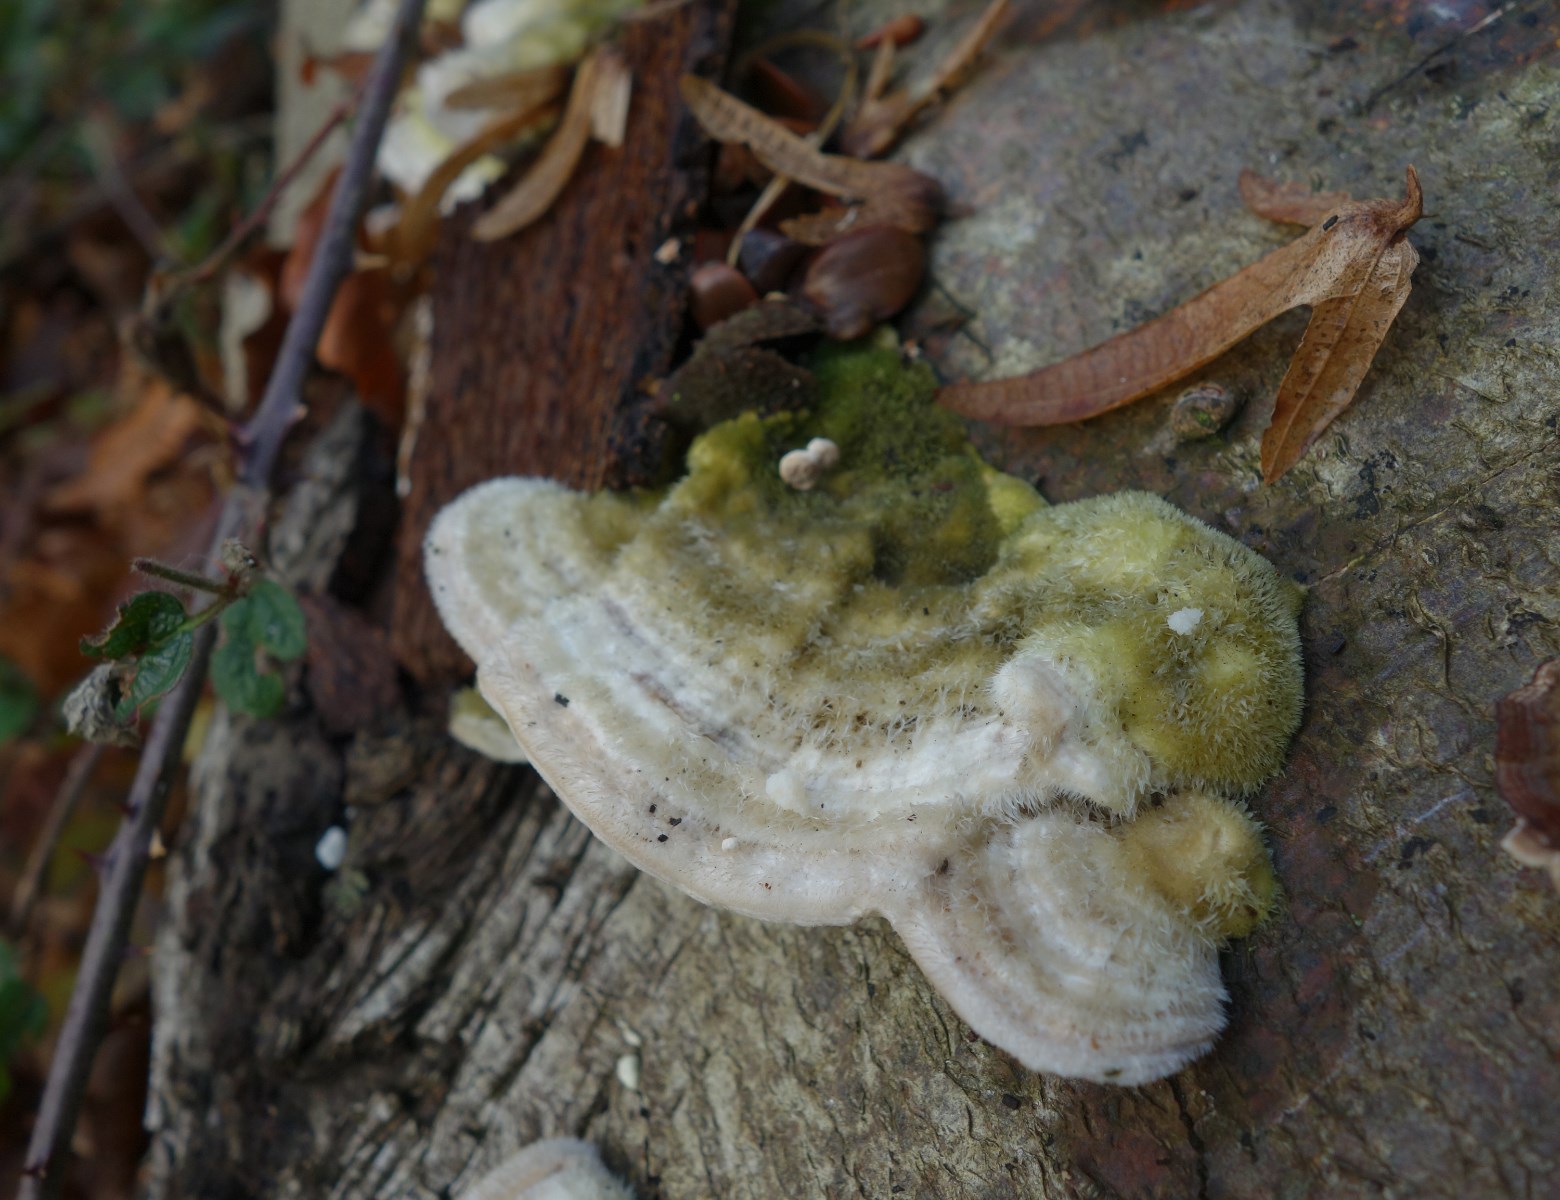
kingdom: Fungi
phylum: Basidiomycota
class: Agaricomycetes
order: Polyporales
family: Polyporaceae
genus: Trametes
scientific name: Trametes hirsuta
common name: håret læderporesvamp
